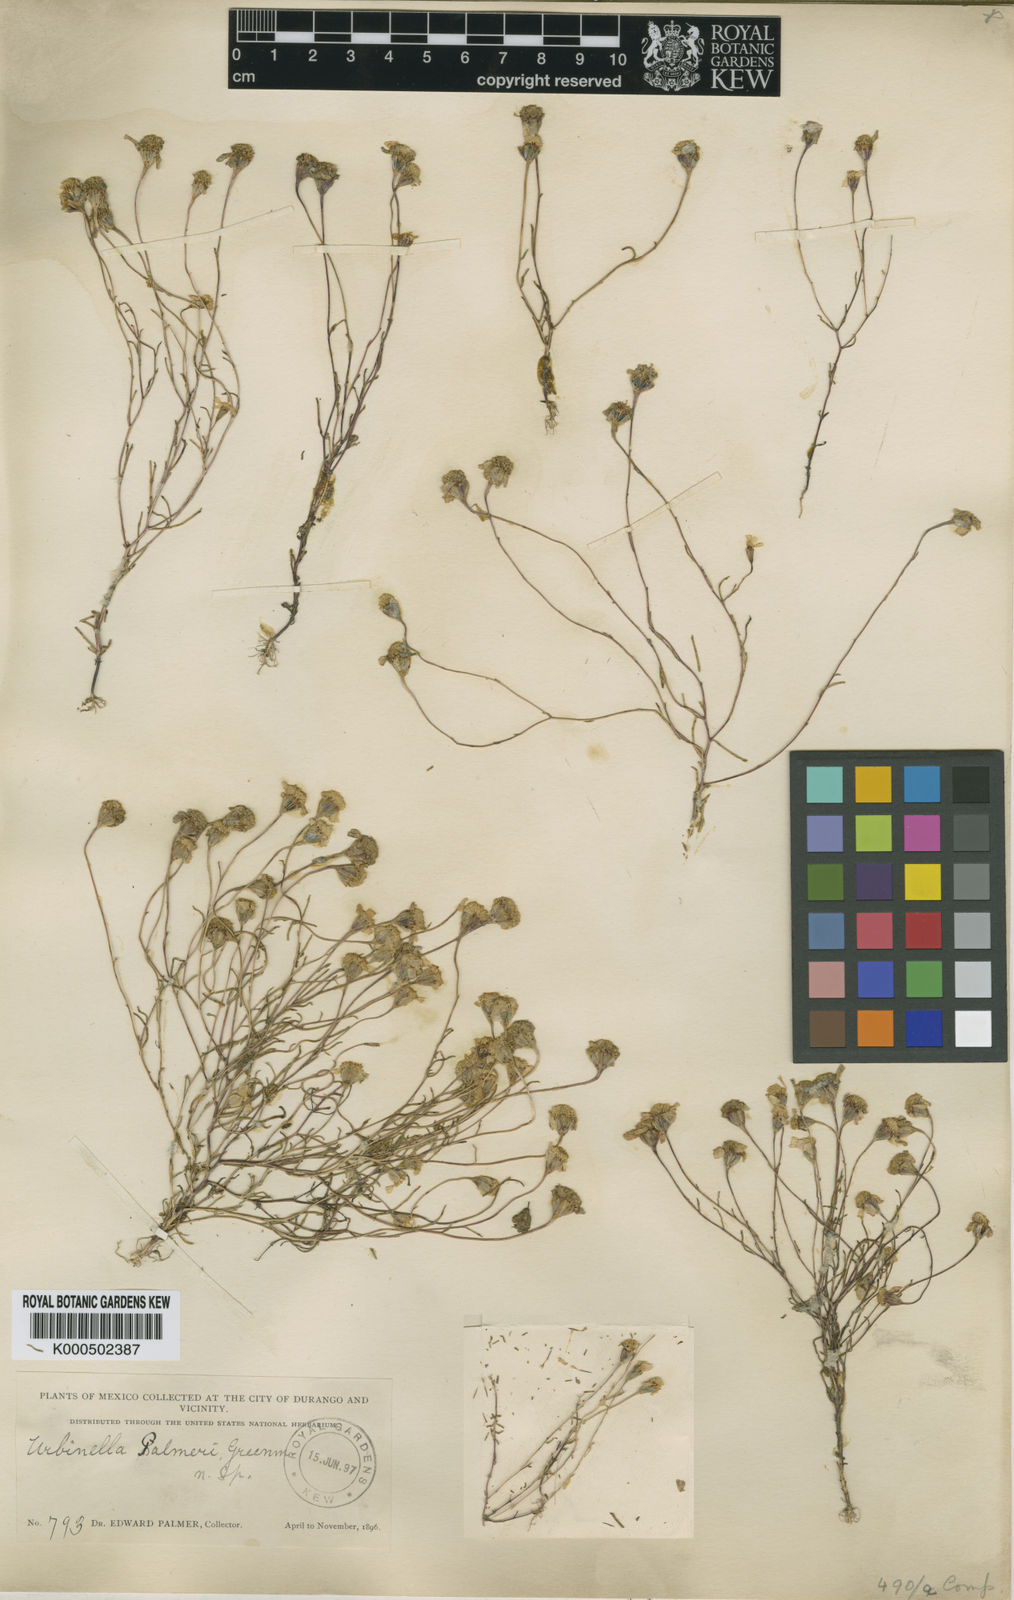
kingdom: Plantae
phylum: Tracheophyta
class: Magnoliopsida
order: Asterales
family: Asteraceae
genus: Urbinella
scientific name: Urbinella palmeri
